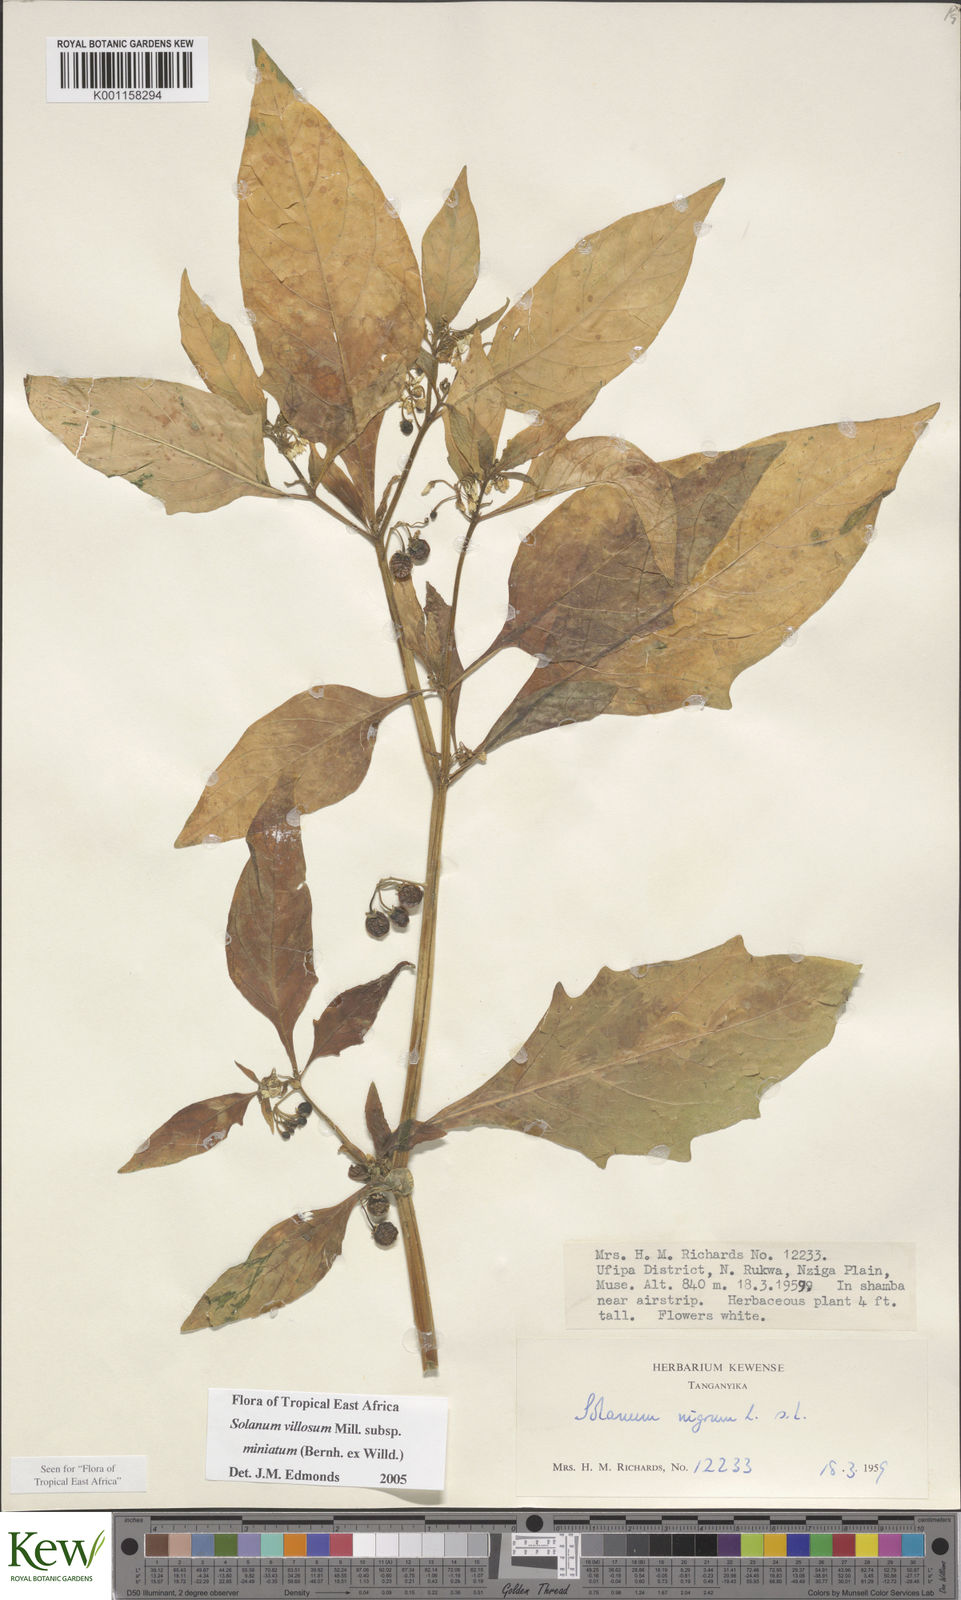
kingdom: Plantae
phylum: Tracheophyta
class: Magnoliopsida
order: Solanales
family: Solanaceae
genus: Solanum
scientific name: Solanum villosum
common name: Red nightshade
